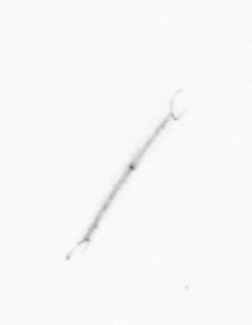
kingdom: Chromista
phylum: Ochrophyta
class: Bacillariophyceae
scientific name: Bacillariophyceae
